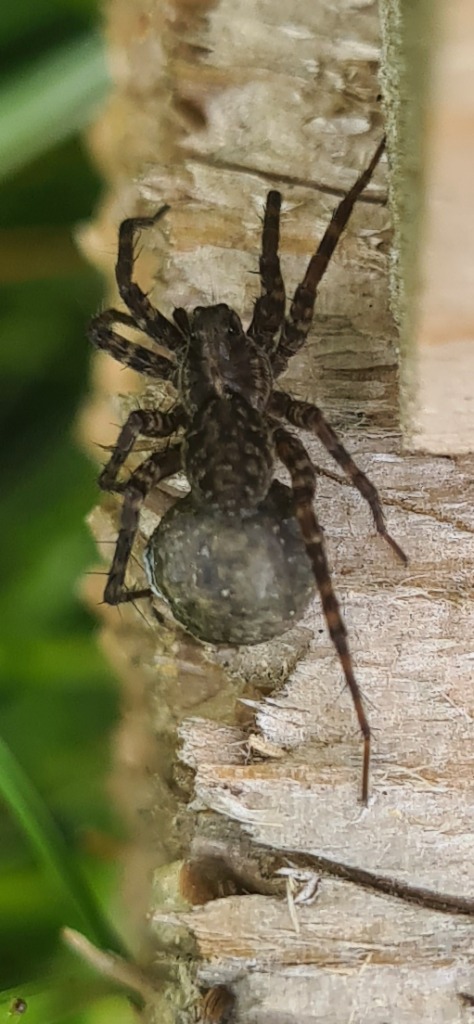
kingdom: Animalia
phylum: Arthropoda
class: Arachnida
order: Araneae
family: Lycosidae
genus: Pardosa
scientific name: Pardosa
